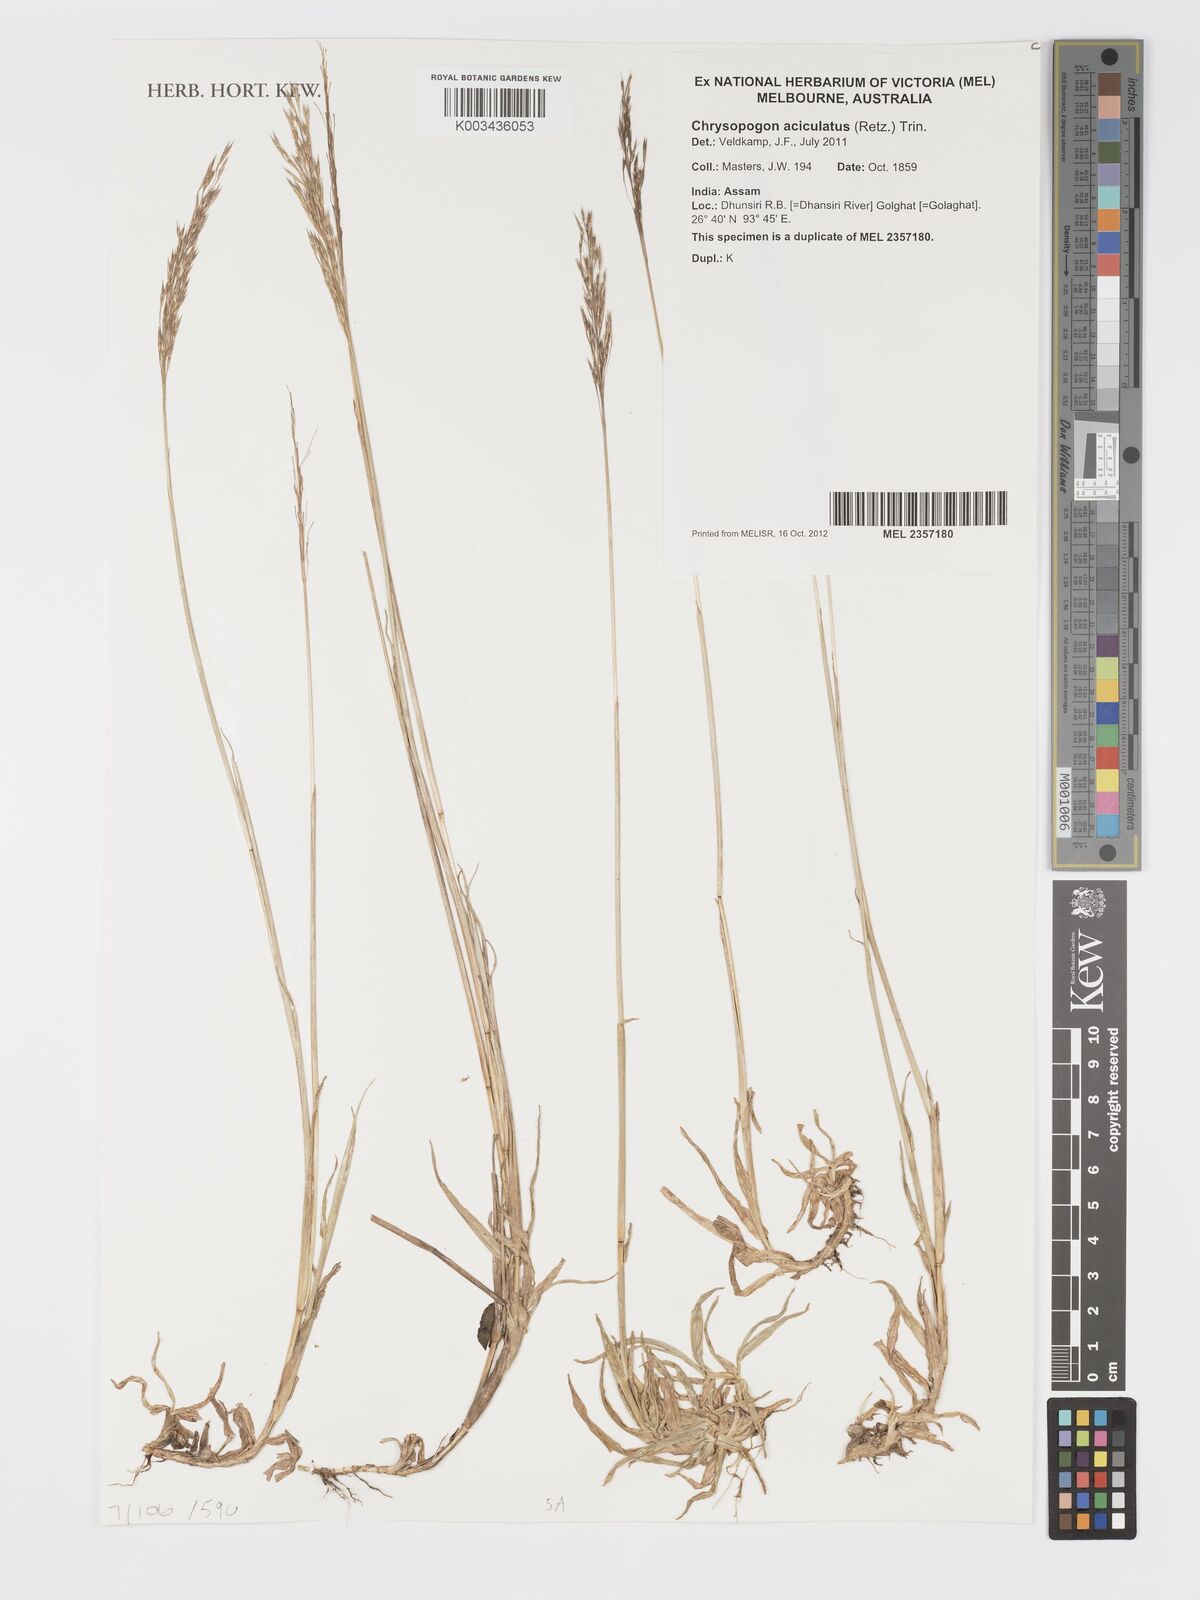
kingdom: Plantae
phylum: Tracheophyta
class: Liliopsida
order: Poales
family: Poaceae
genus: Chrysopogon
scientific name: Chrysopogon aciculatus
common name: Pilipiliula
